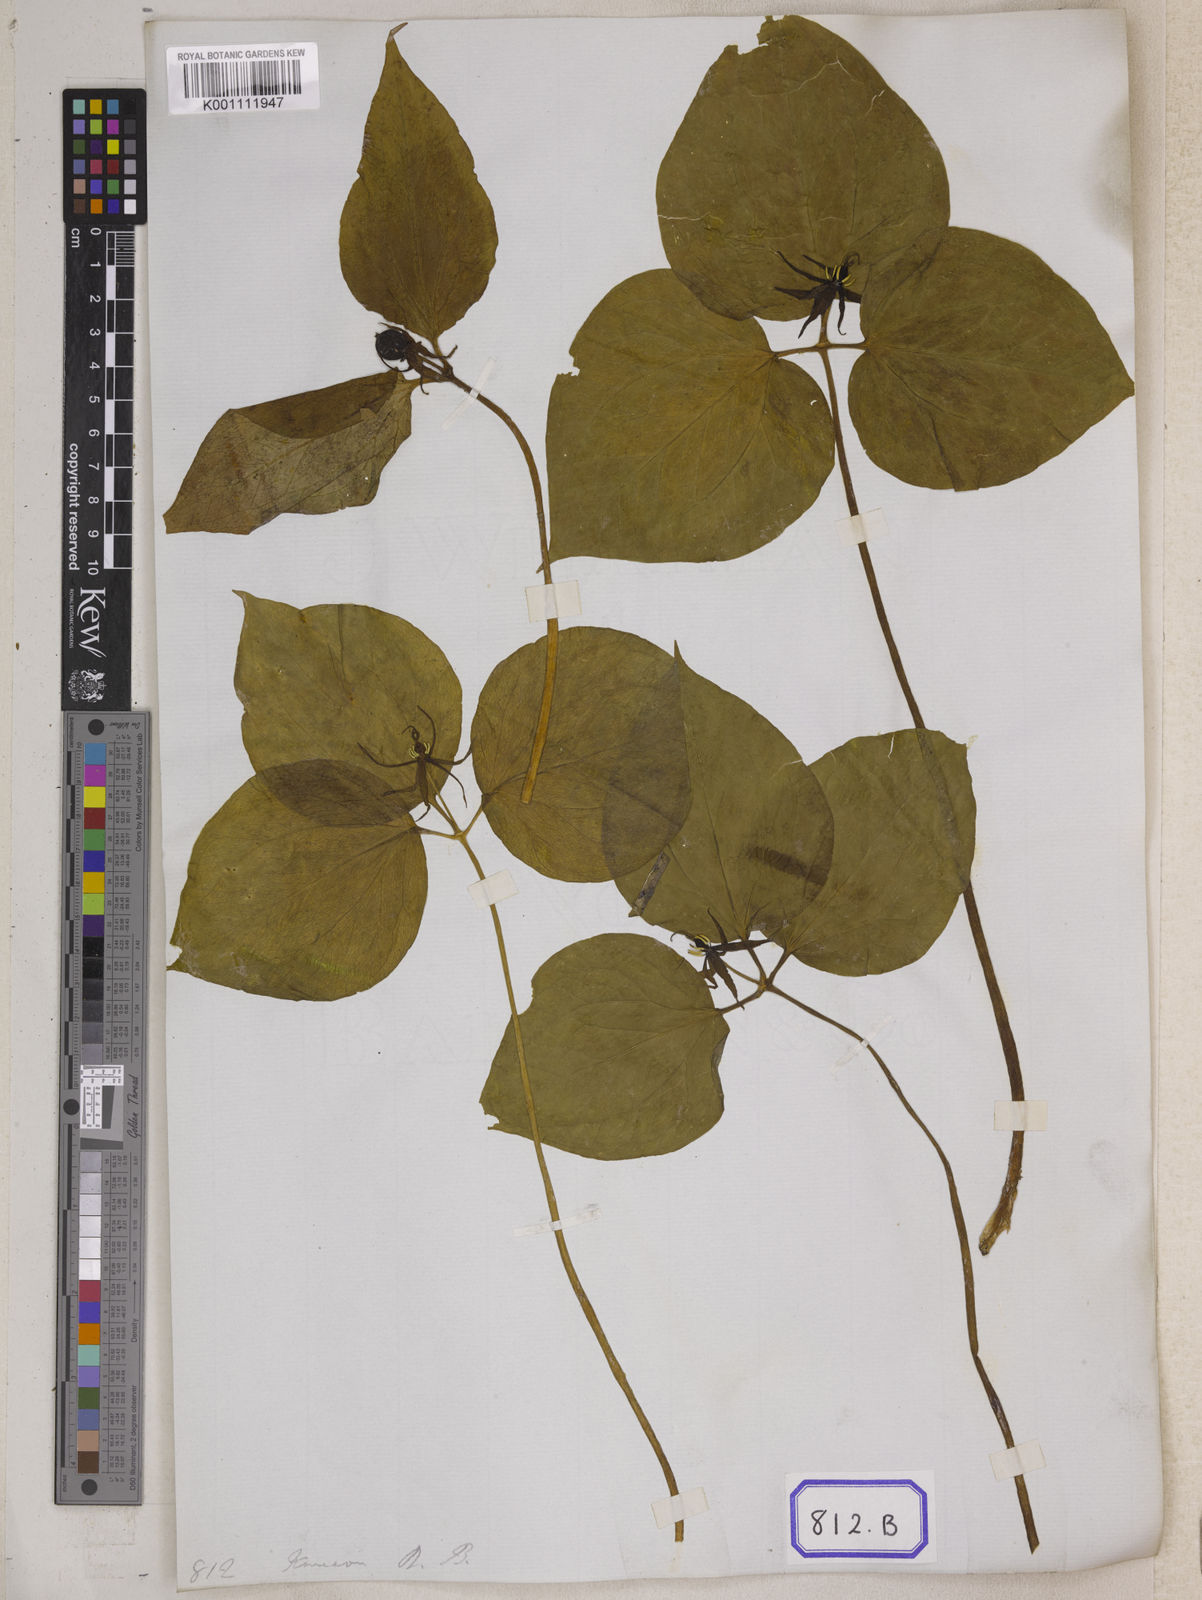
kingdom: Plantae
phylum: Tracheophyta
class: Liliopsida
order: Liliales
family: Melanthiaceae
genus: Trillium
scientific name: Trillium
